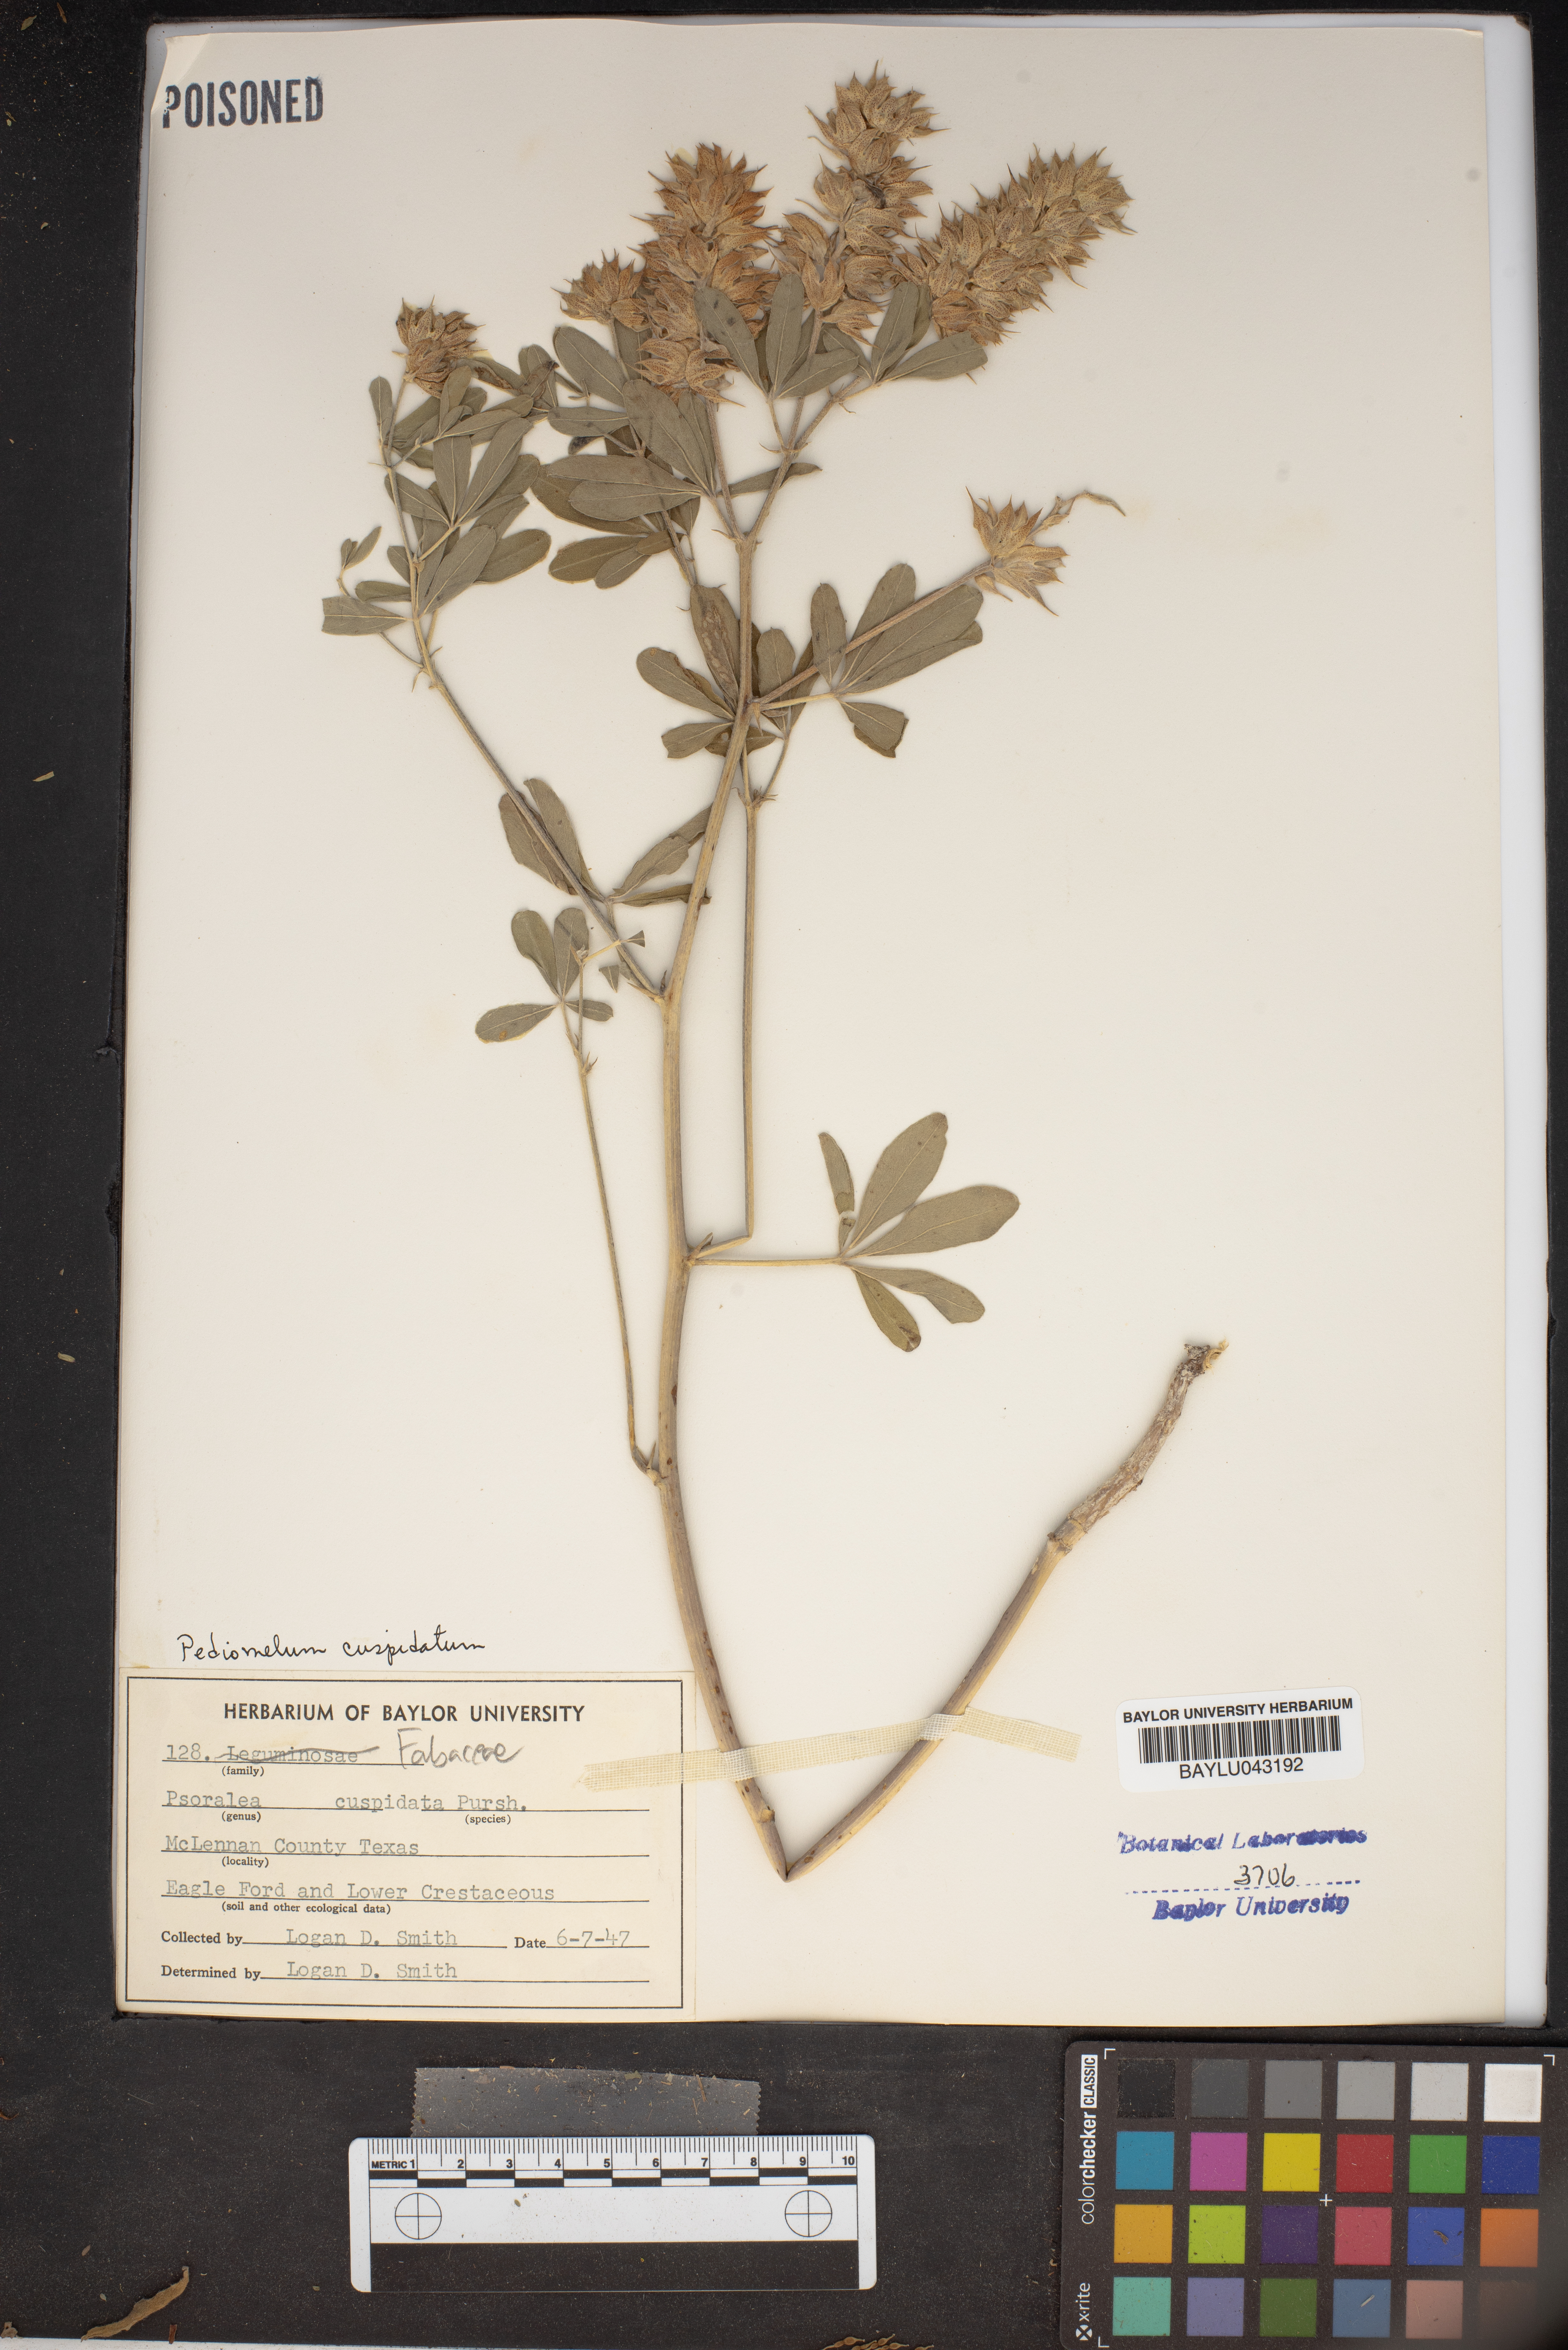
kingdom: Plantae
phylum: Tracheophyta
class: Magnoliopsida
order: Fabales
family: Fabaceae
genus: Pediomelum
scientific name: Pediomelum cuspidatum
